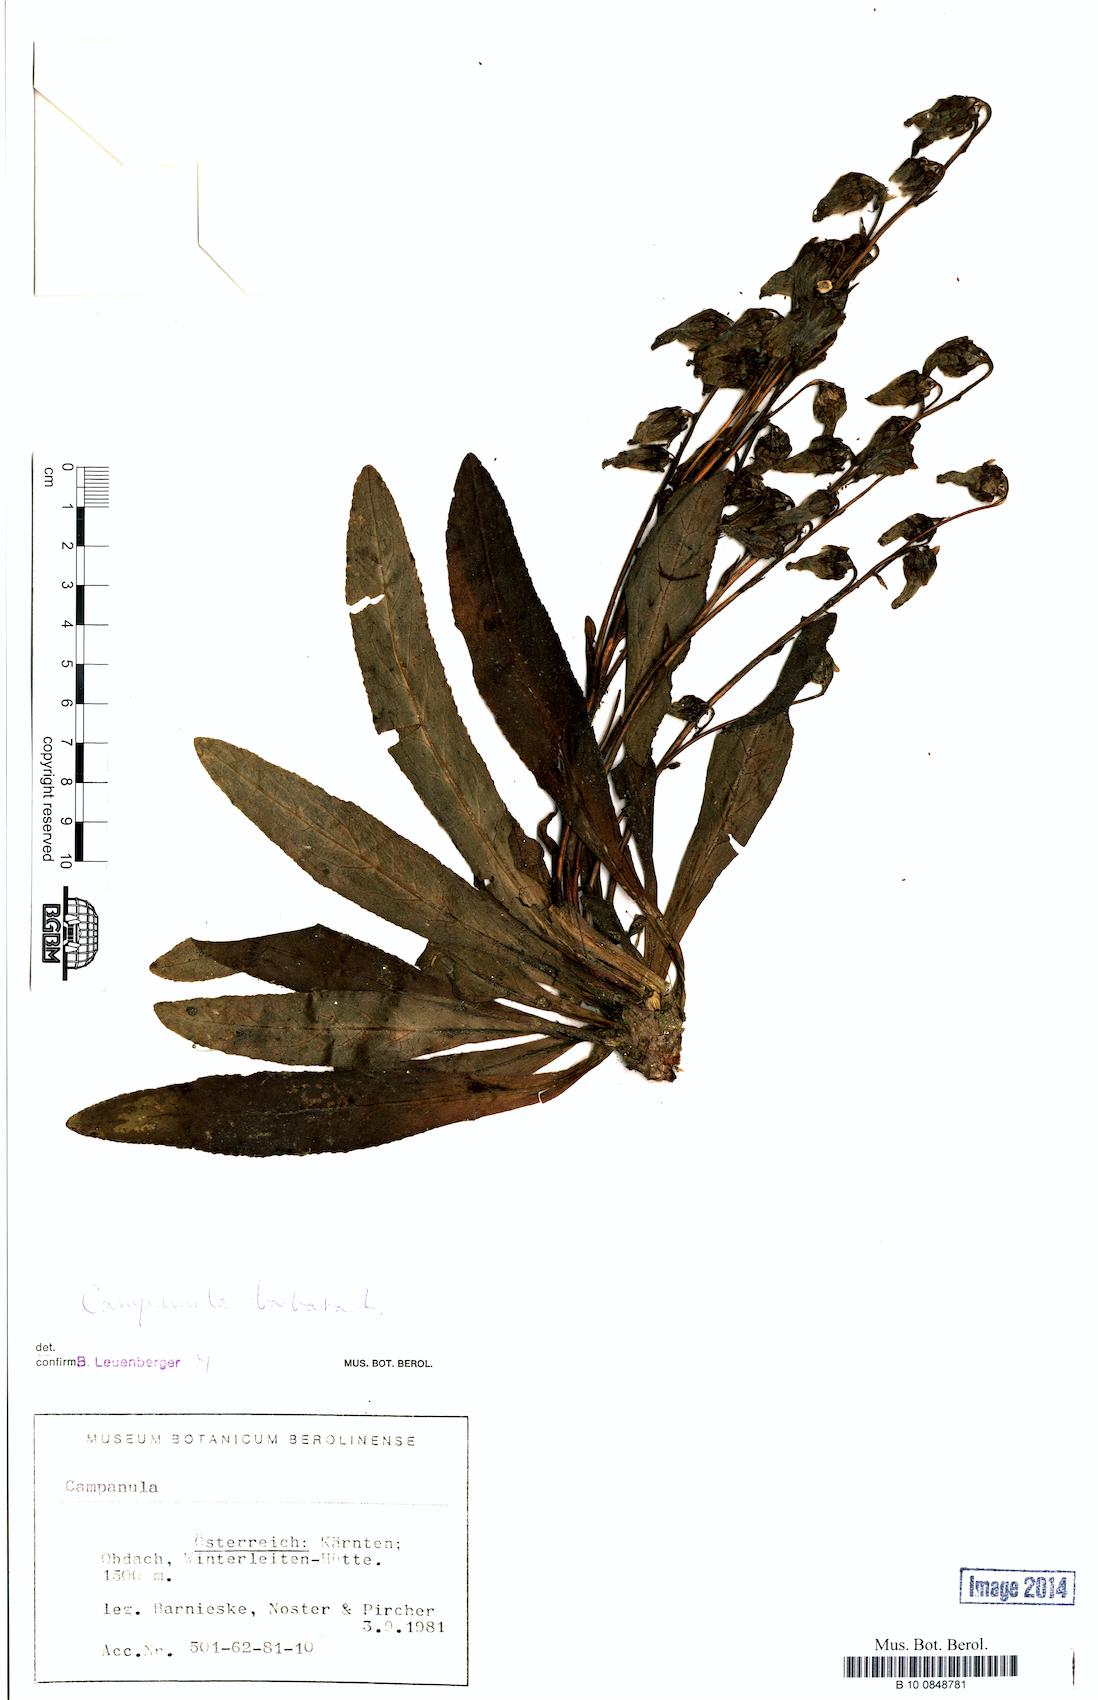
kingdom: Plantae
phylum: Tracheophyta
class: Magnoliopsida
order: Asterales
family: Campanulaceae
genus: Campanula
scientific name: Campanula barbata
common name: Bearded bellflower
